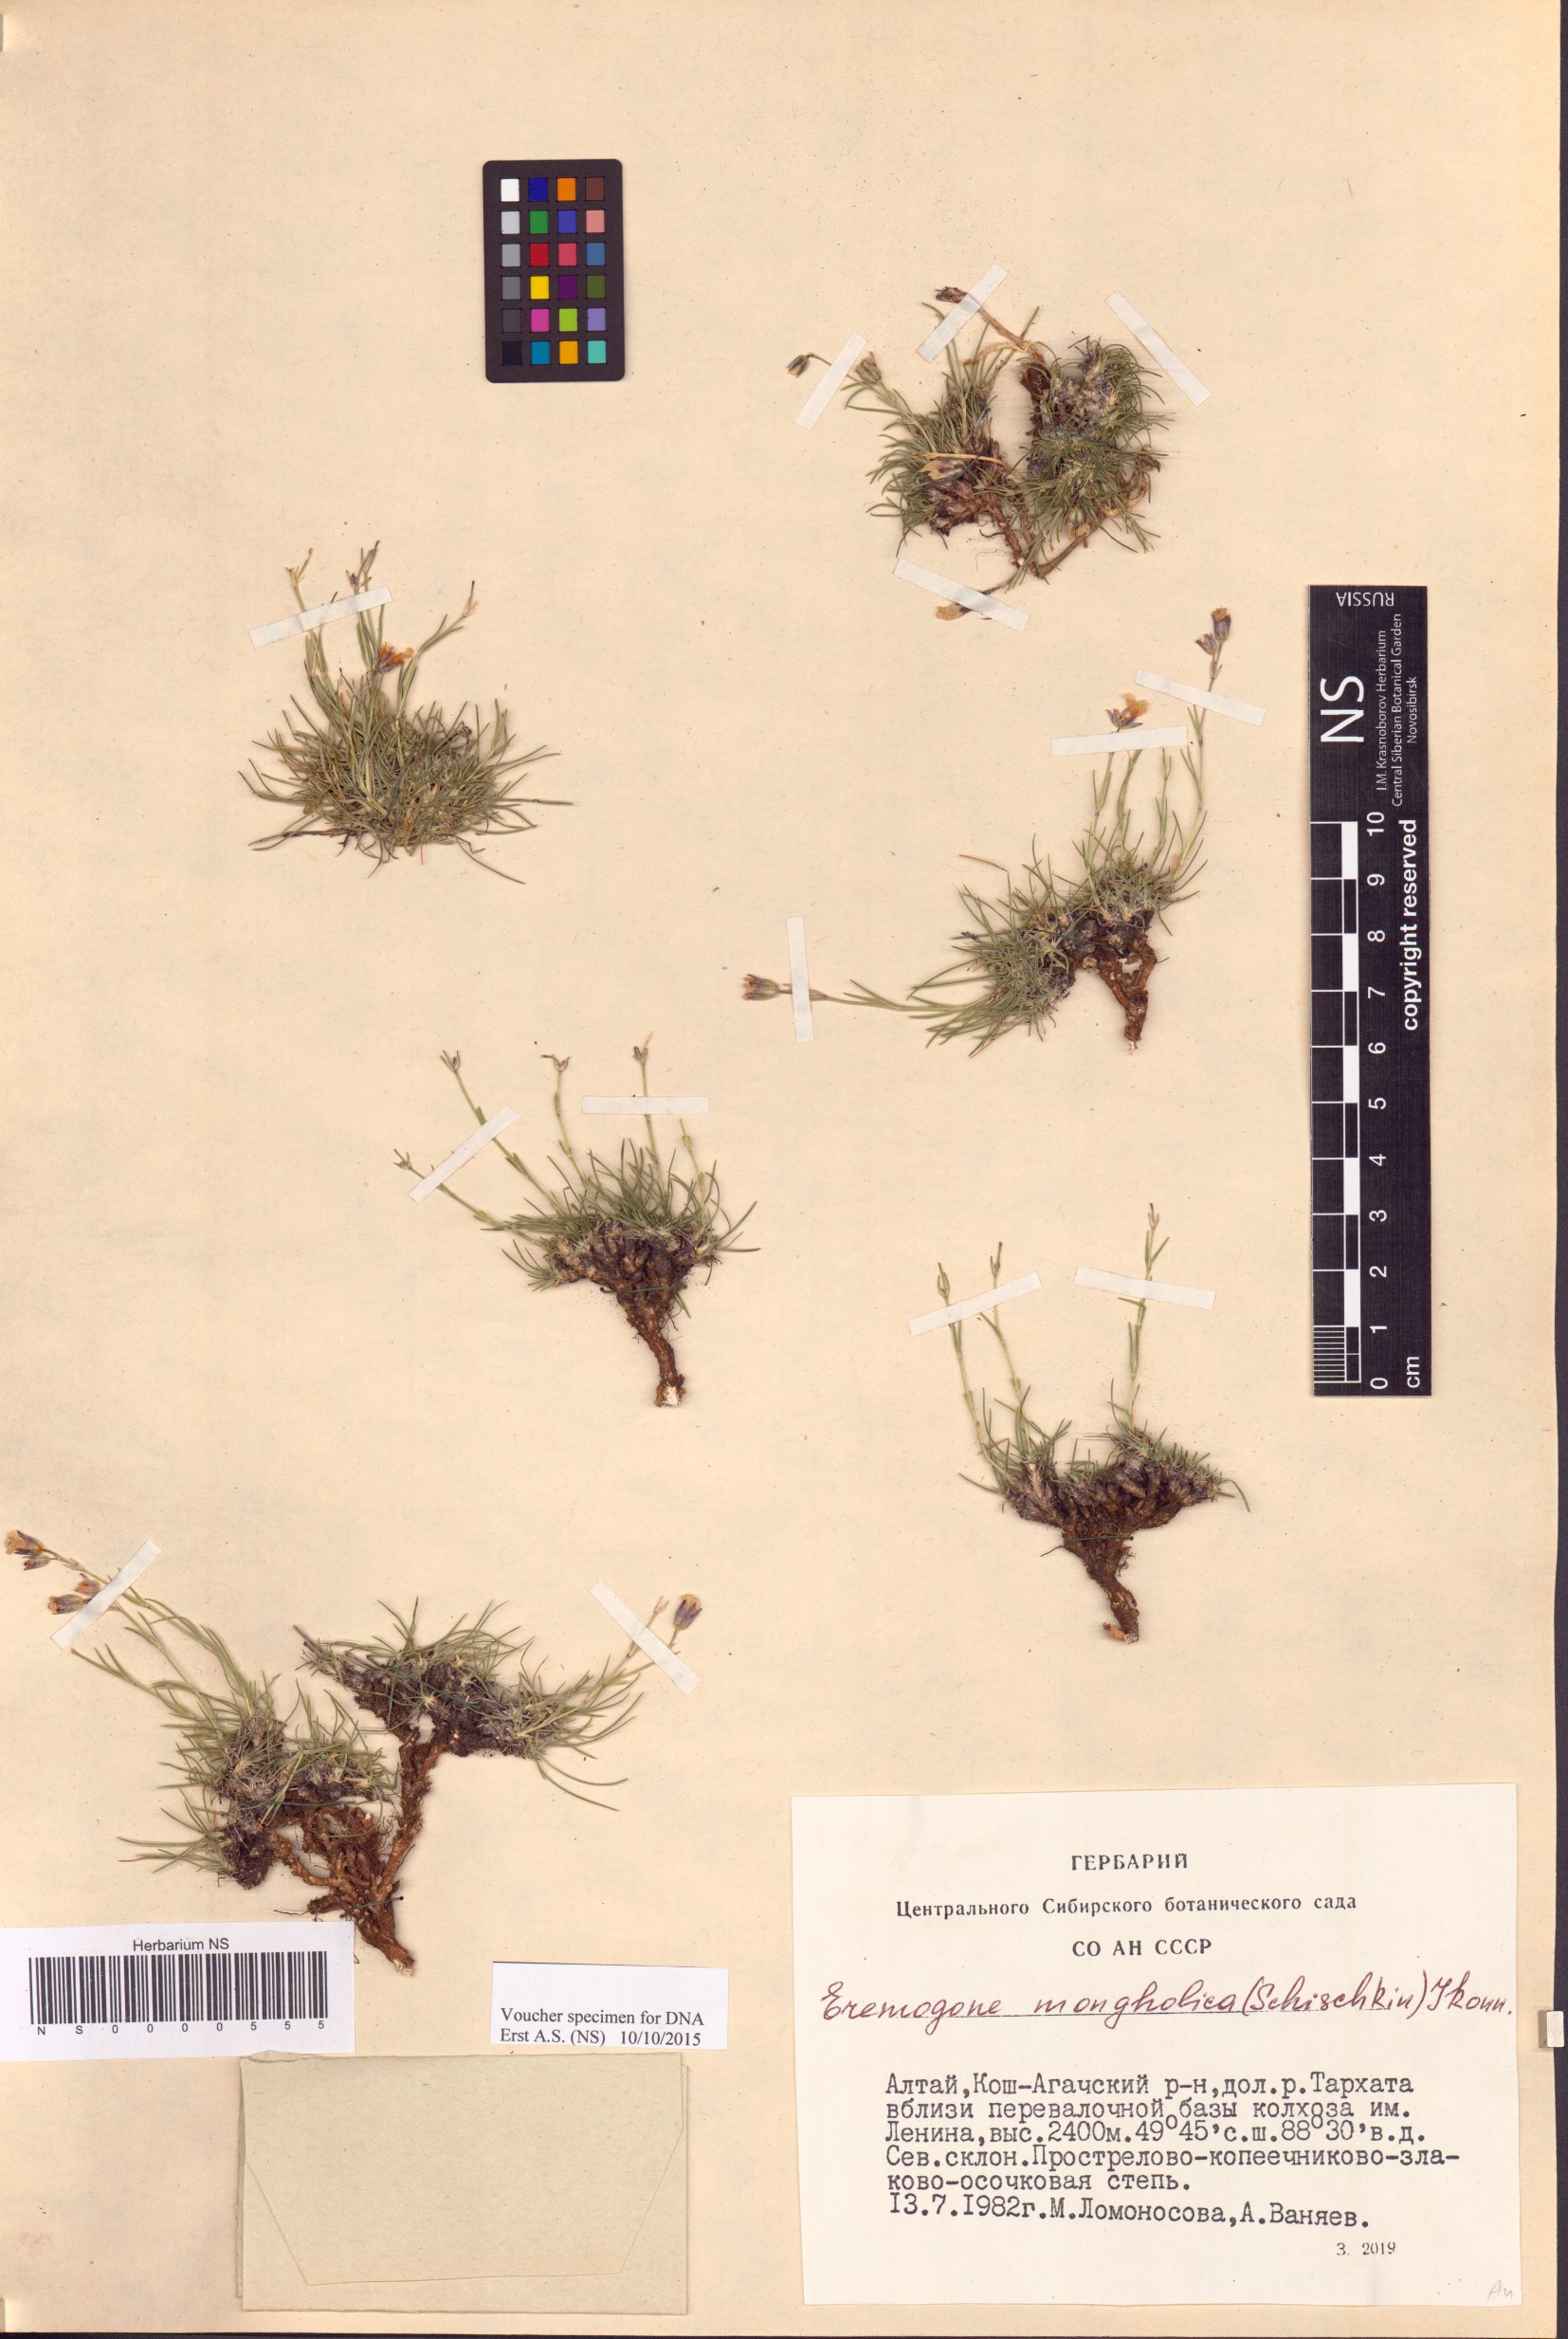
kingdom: Plantae
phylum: Tracheophyta
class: Magnoliopsida
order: Caryophyllales
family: Caryophyllaceae
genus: Eremogone
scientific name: Eremogone mongolica
